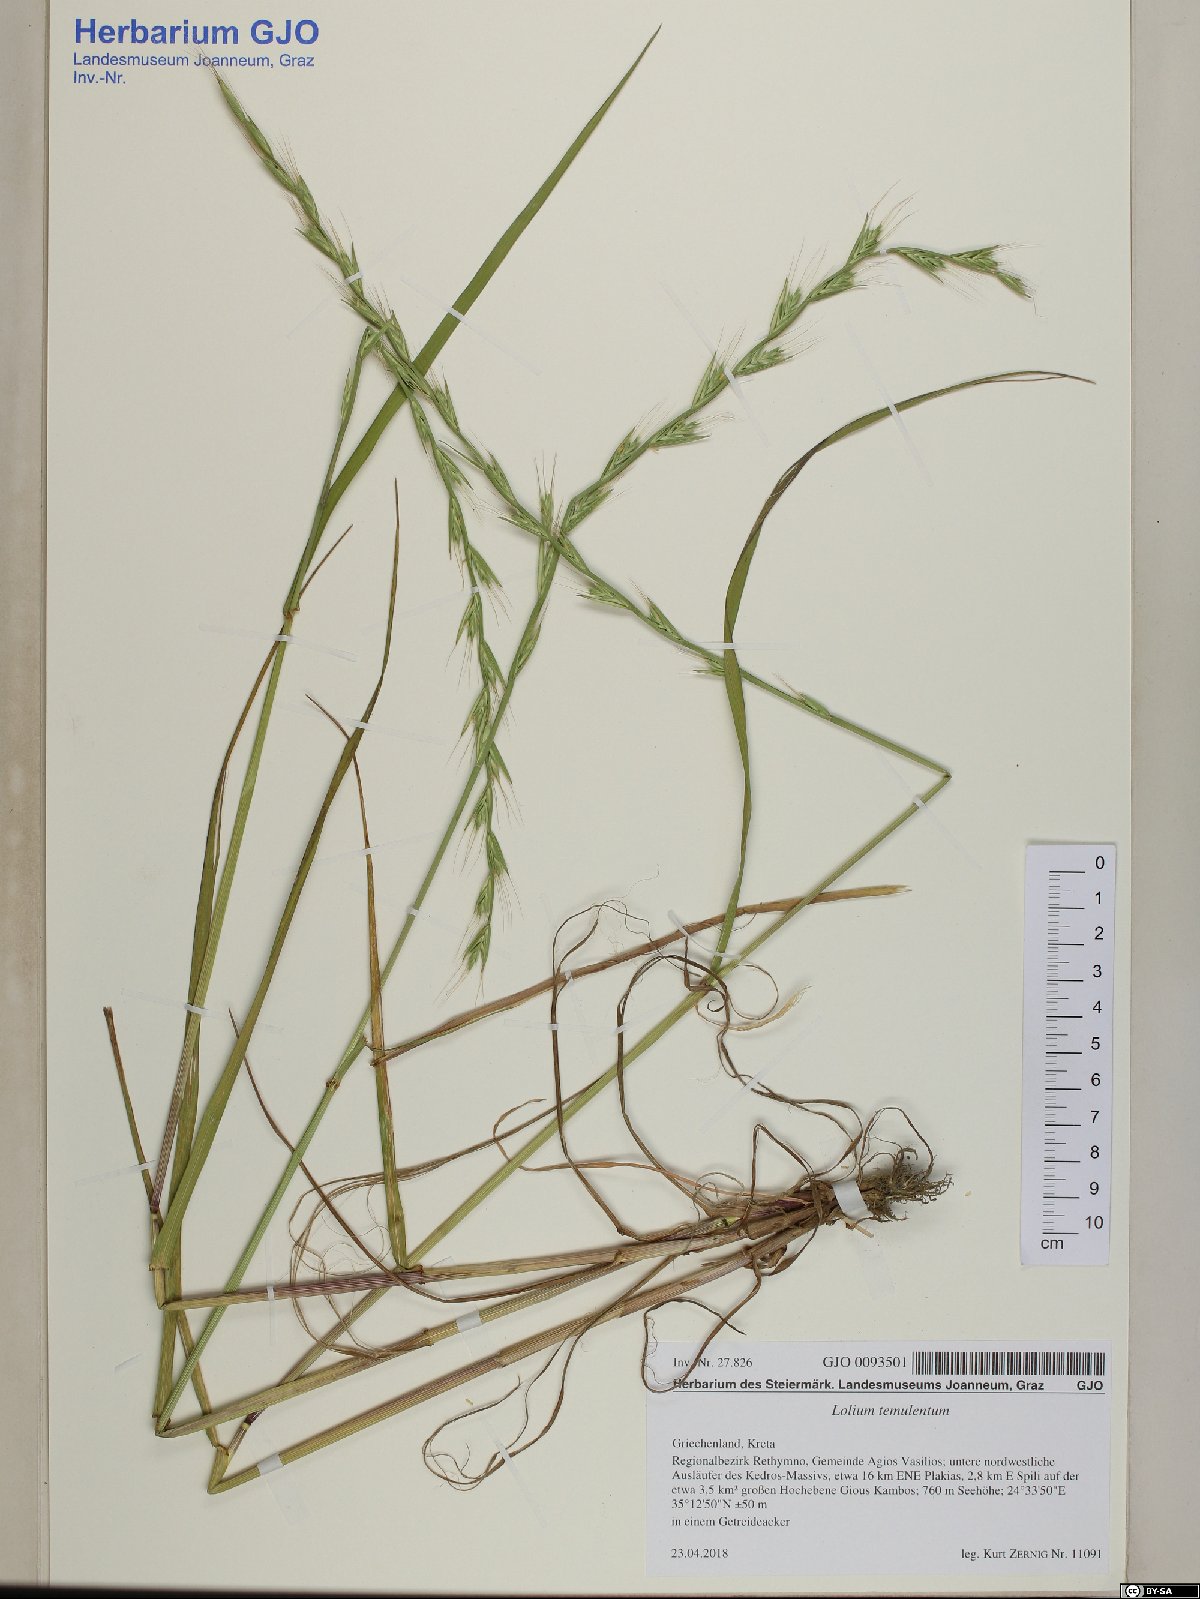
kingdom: Plantae
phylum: Tracheophyta
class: Liliopsida
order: Poales
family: Poaceae
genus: Lolium
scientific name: Lolium temulentum
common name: Darnel
